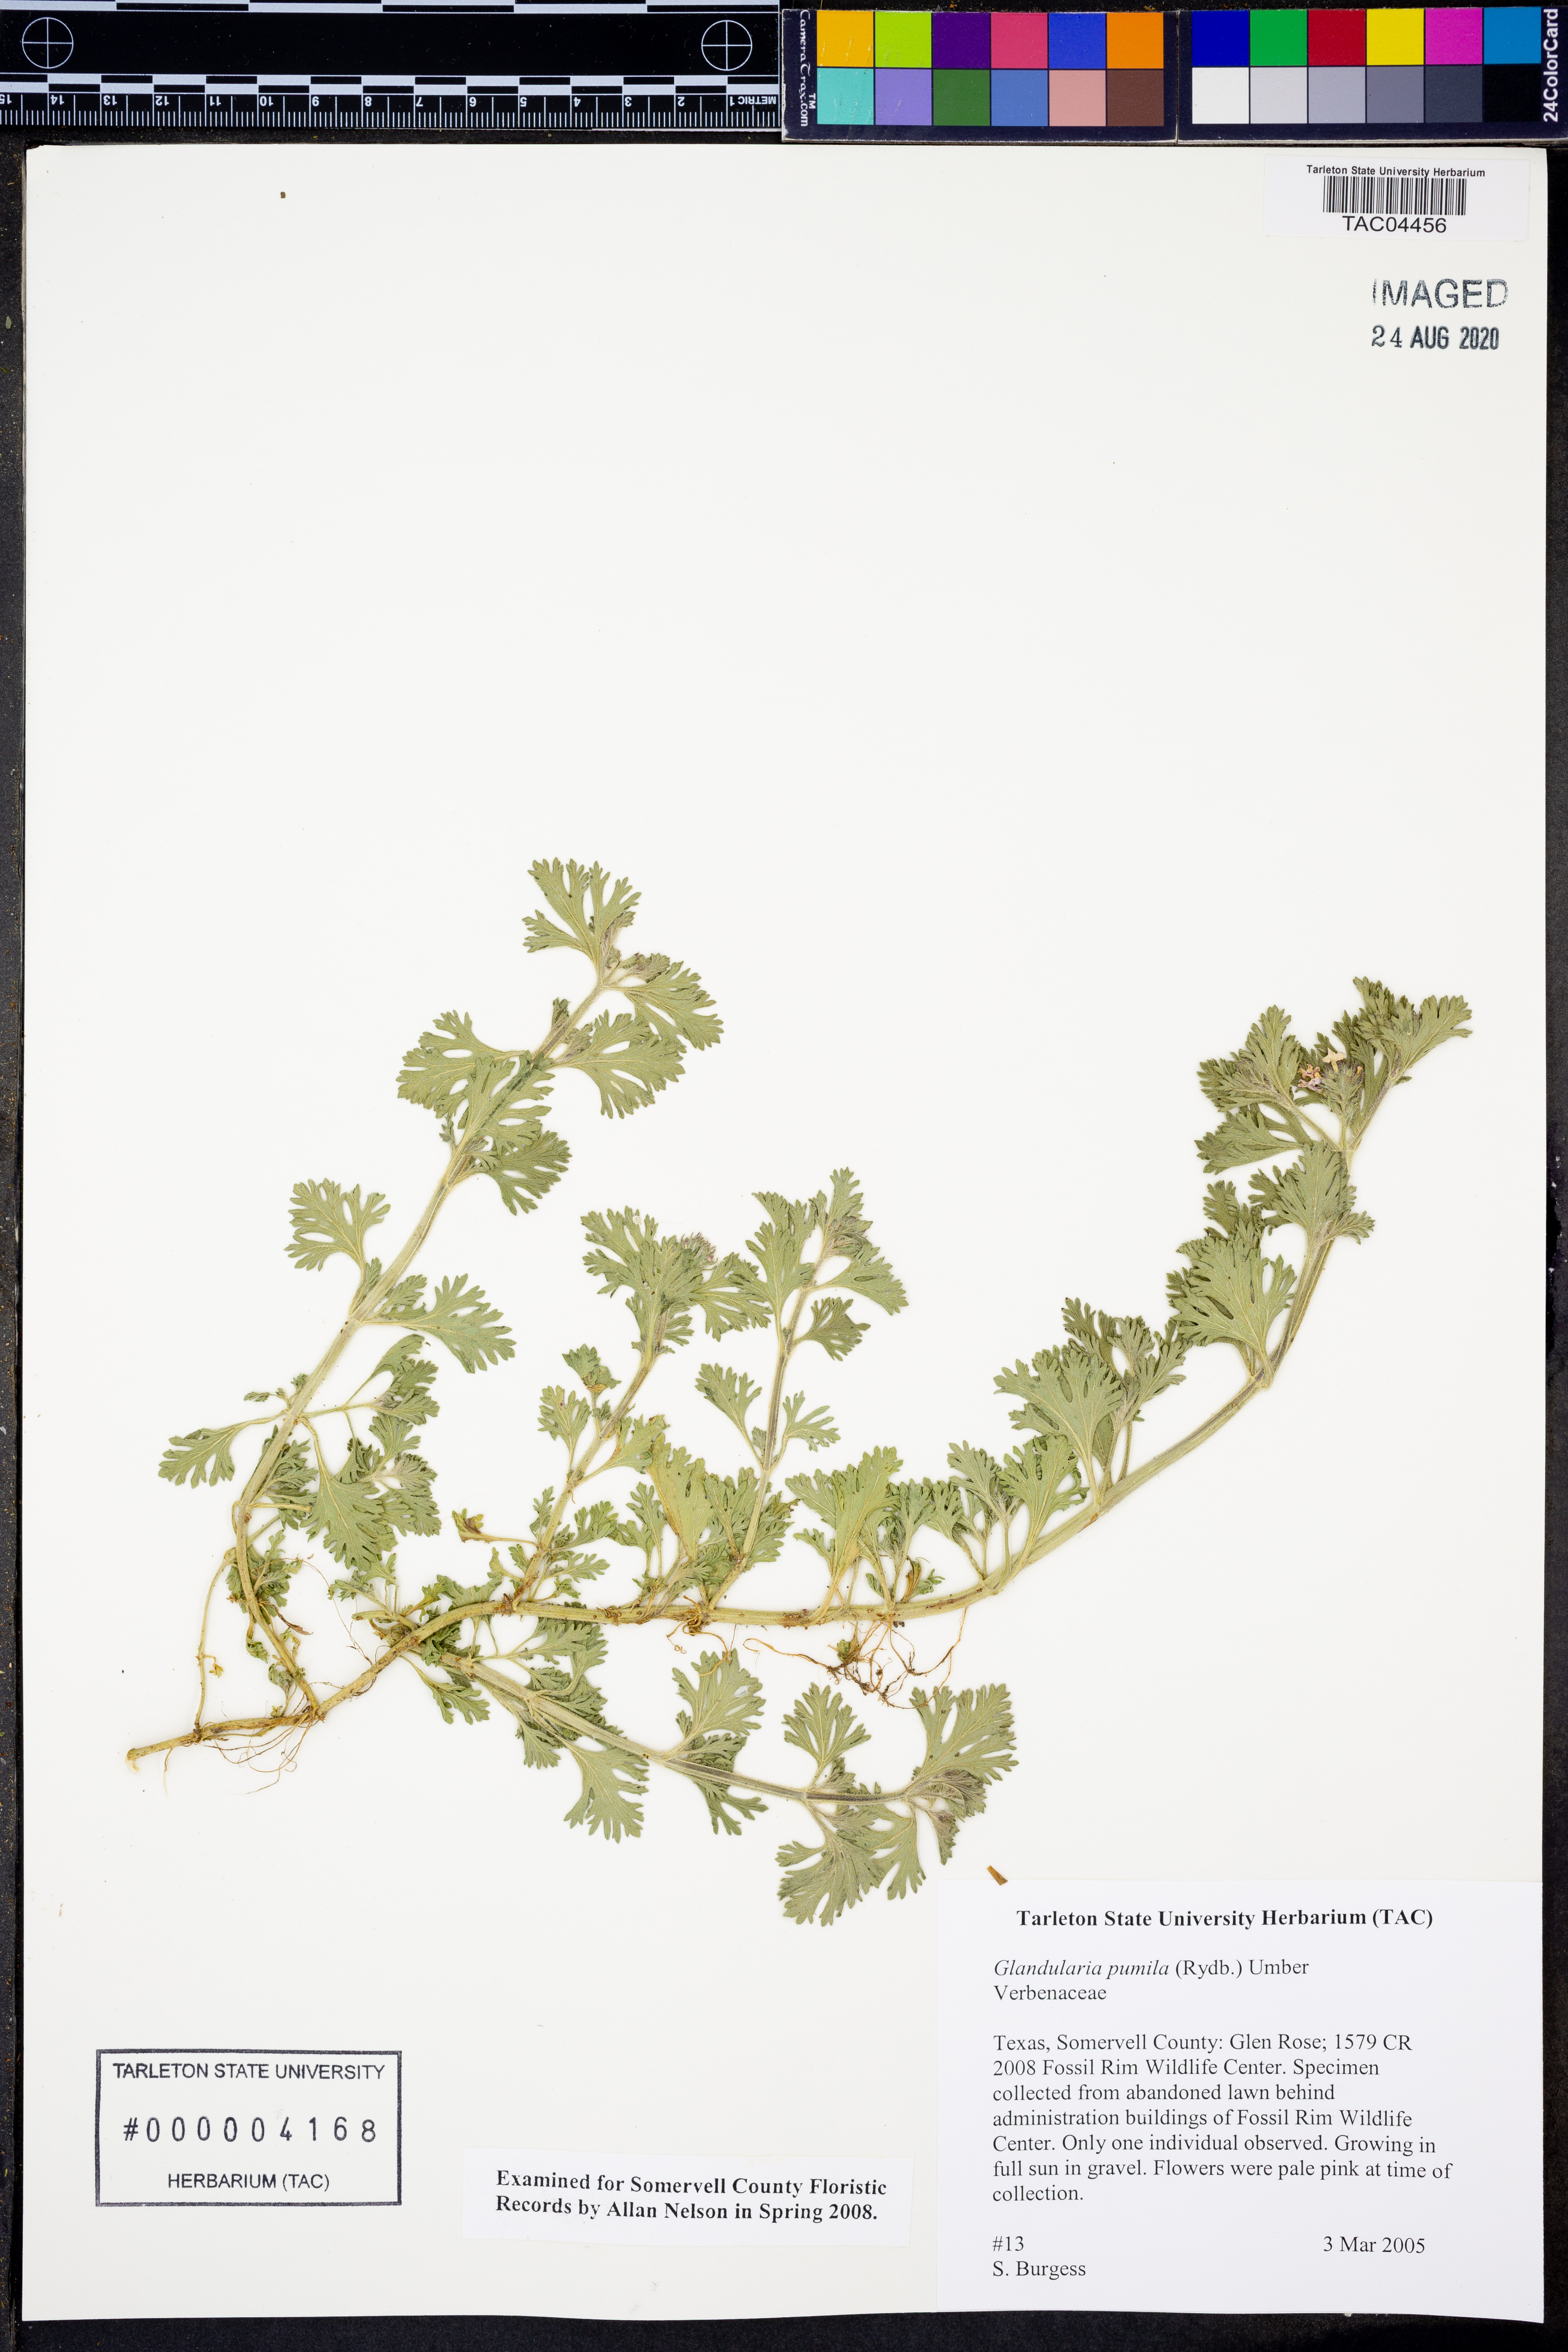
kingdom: Plantae
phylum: Tracheophyta
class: Magnoliopsida
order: Lamiales
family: Verbenaceae
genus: Verbena
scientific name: Verbena pumila
